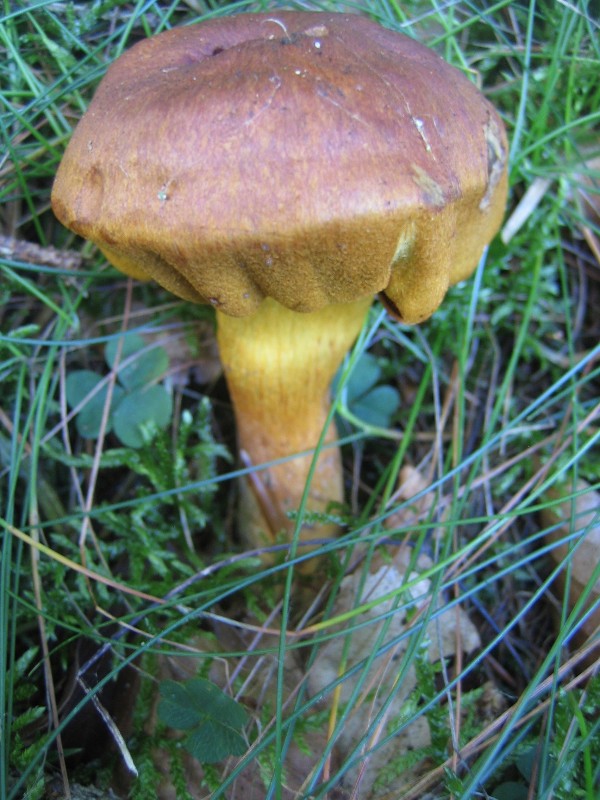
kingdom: Fungi
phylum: Basidiomycota
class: Agaricomycetes
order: Agaricales
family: Cortinariaceae
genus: Cortinarius
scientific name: Cortinarius
